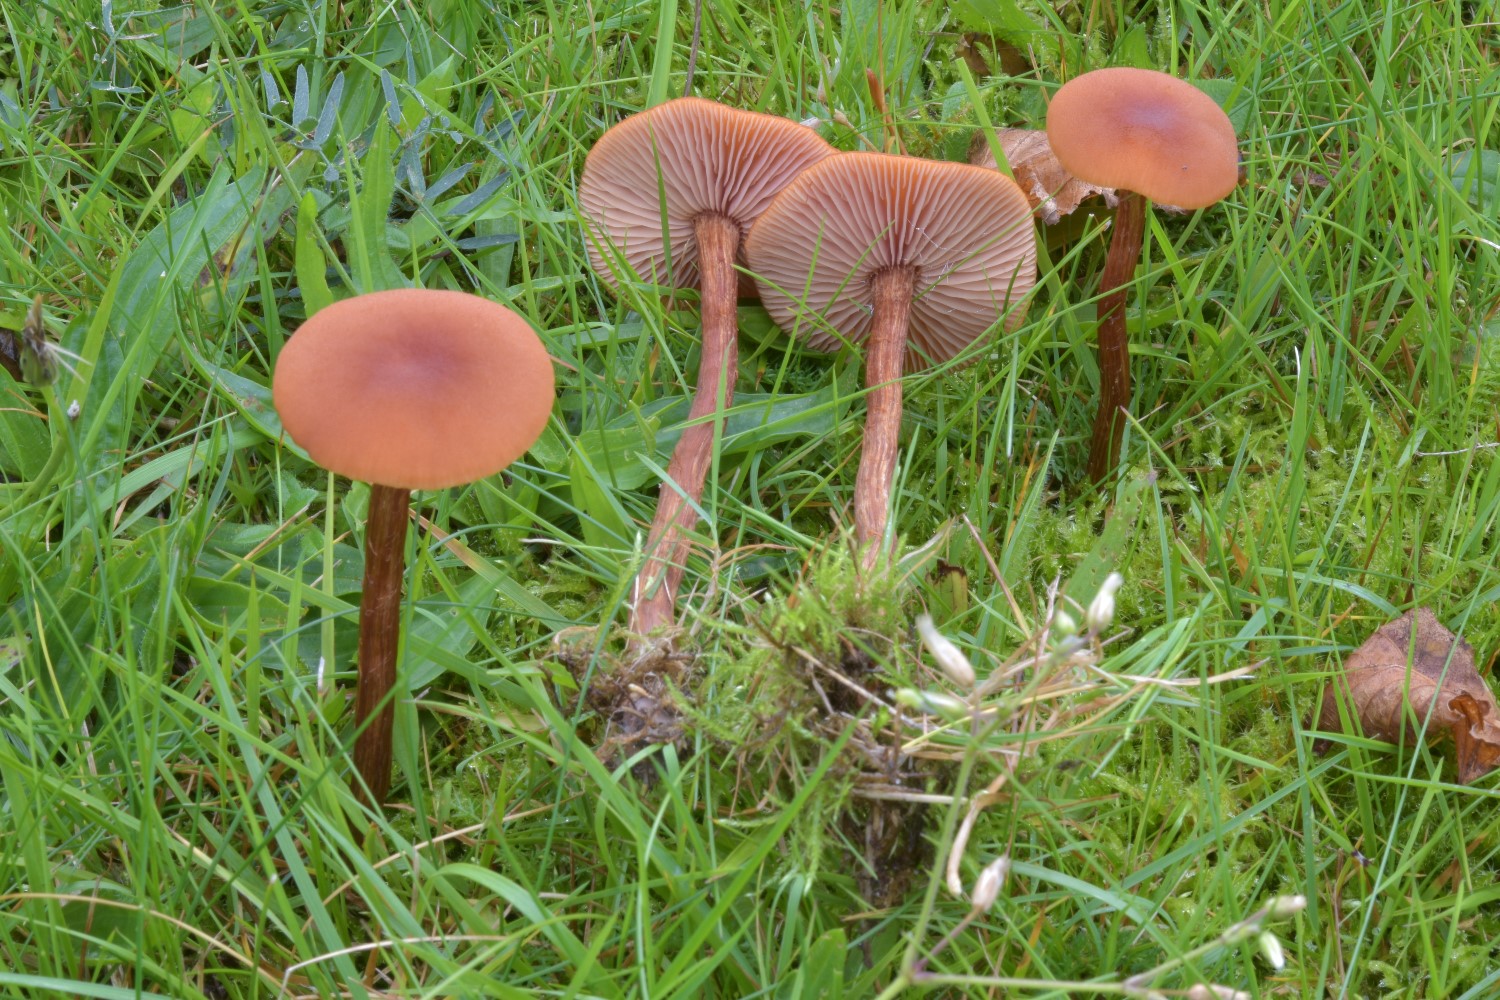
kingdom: Fungi
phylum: Basidiomycota
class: Agaricomycetes
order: Agaricales
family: Hydnangiaceae
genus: Laccaria
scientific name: Laccaria proxima
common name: stor ametysthat
